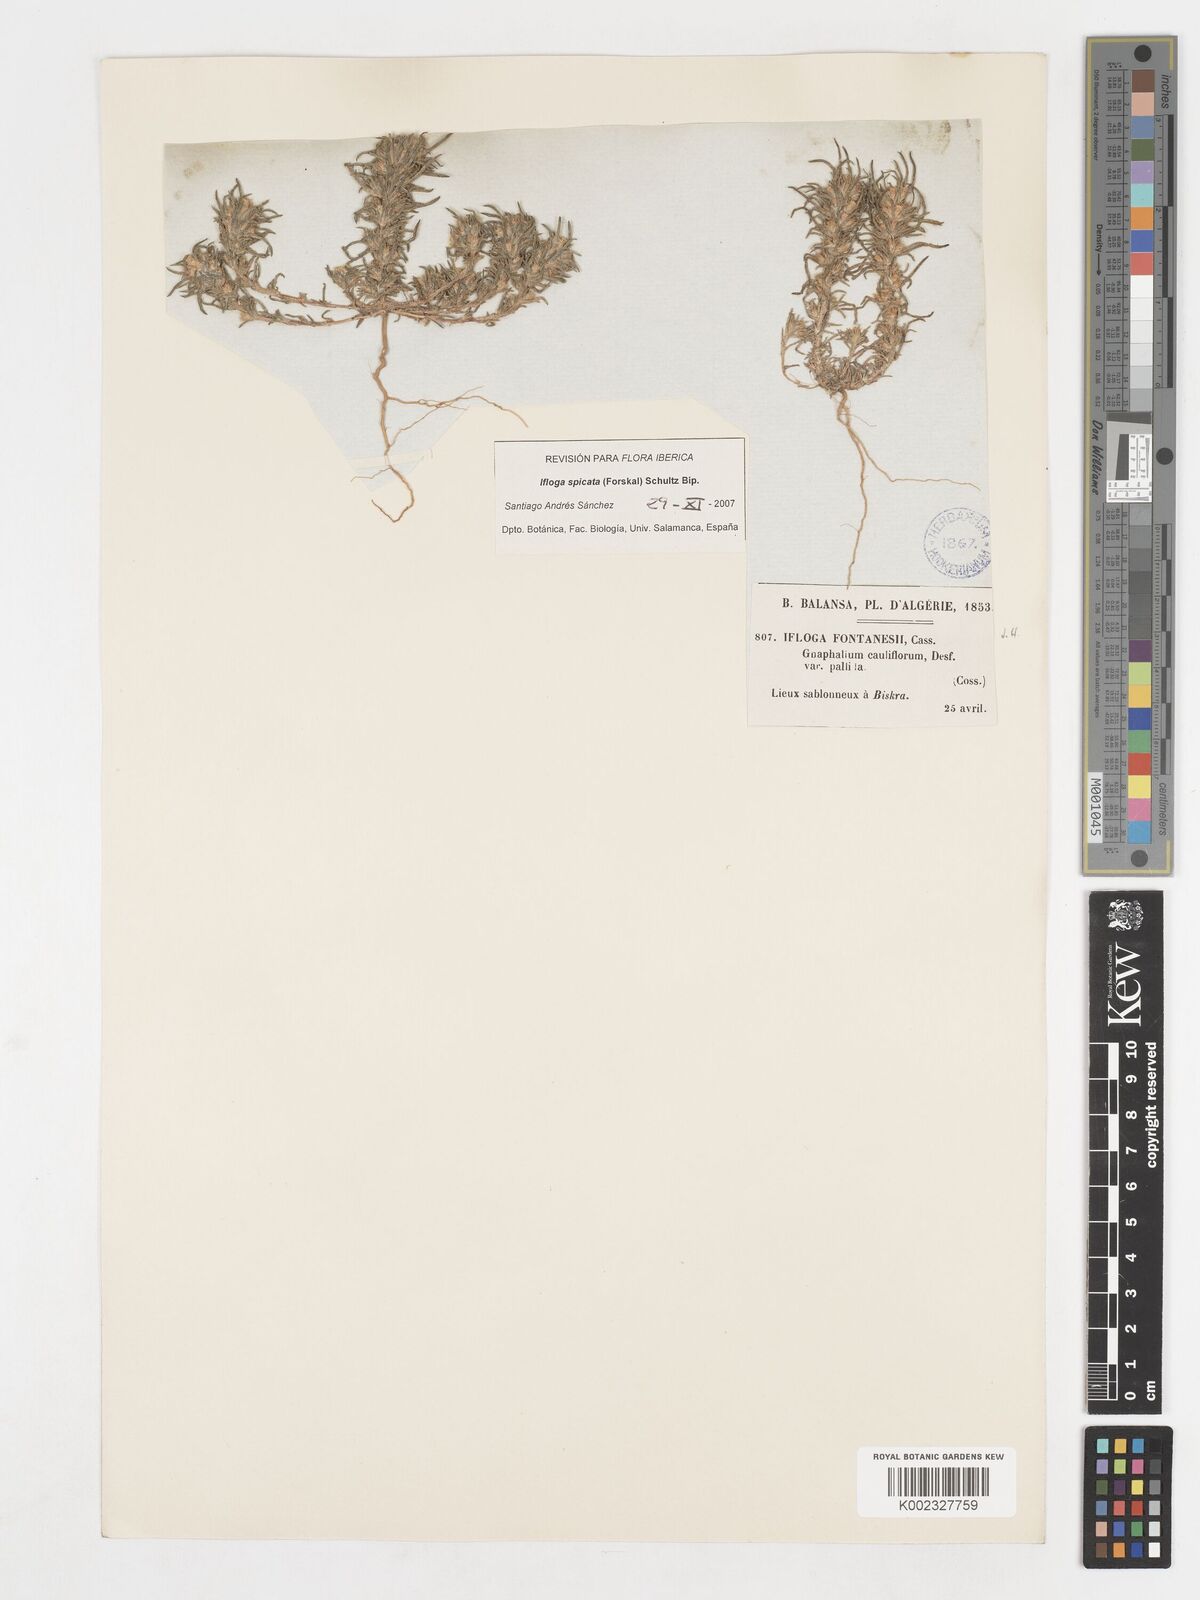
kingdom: Plantae
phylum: Tracheophyta
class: Magnoliopsida
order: Asterales
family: Asteraceae
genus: Ifloga
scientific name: Ifloga spicata
